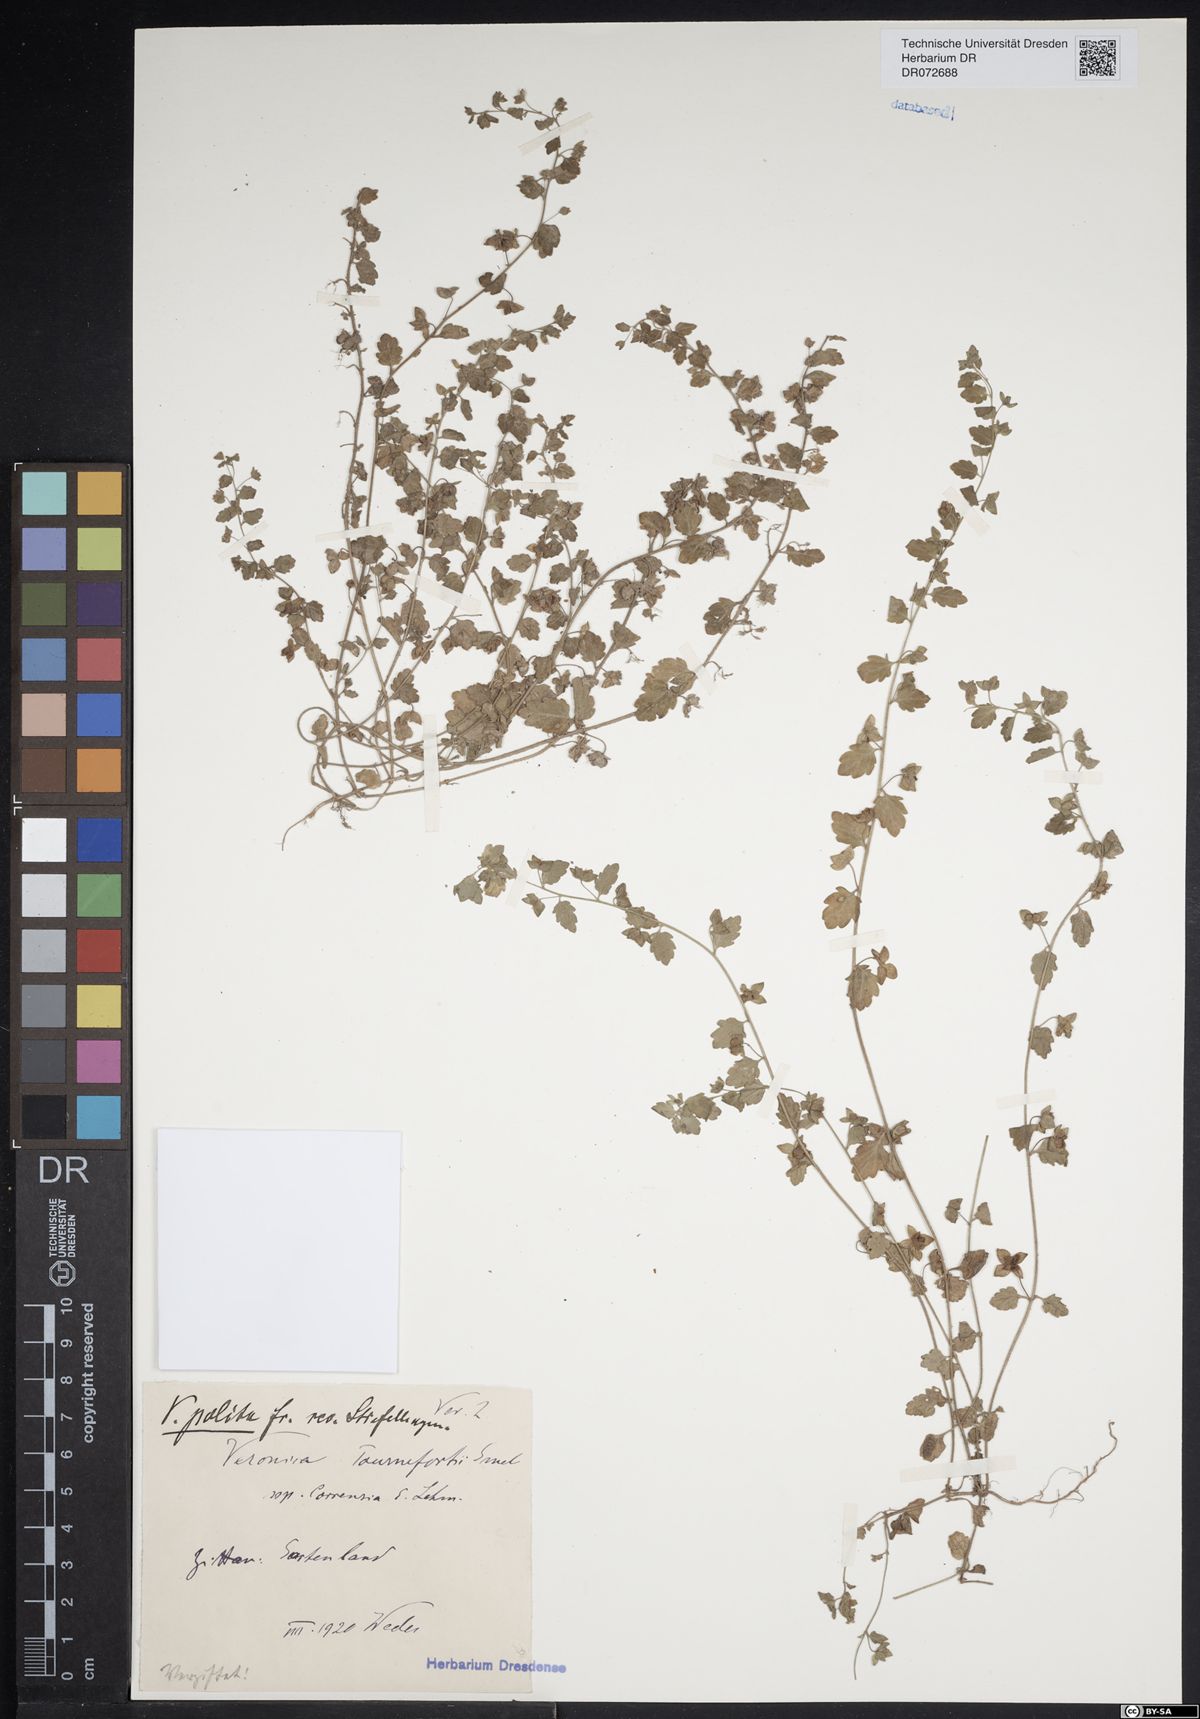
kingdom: Plantae
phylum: Tracheophyta
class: Magnoliopsida
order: Lamiales
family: Plantaginaceae
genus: Veronica
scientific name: Veronica polita
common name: Grey field-speedwell
